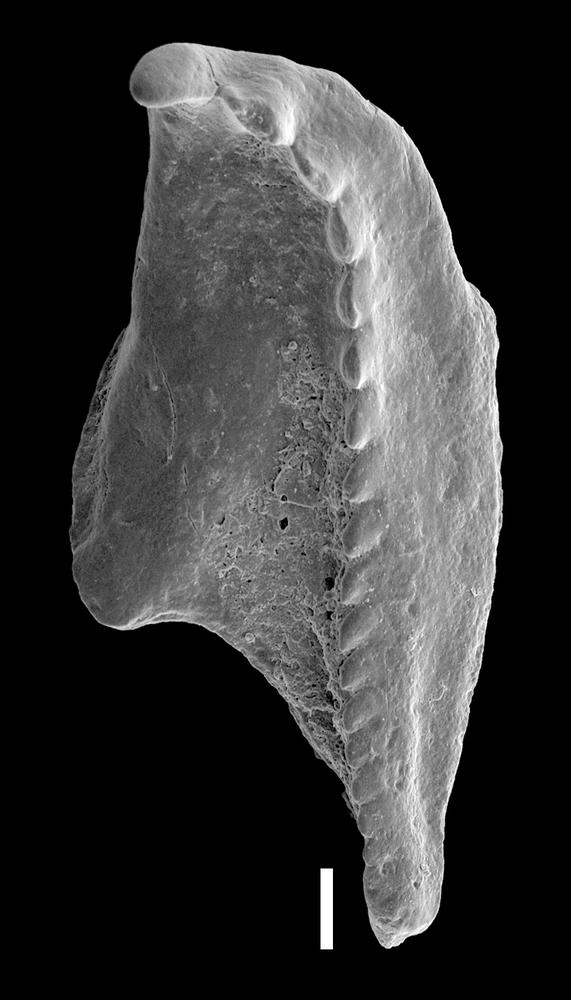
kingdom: Animalia
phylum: Annelida
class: Polychaeta
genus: Symmetroprion
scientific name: Symmetroprion
